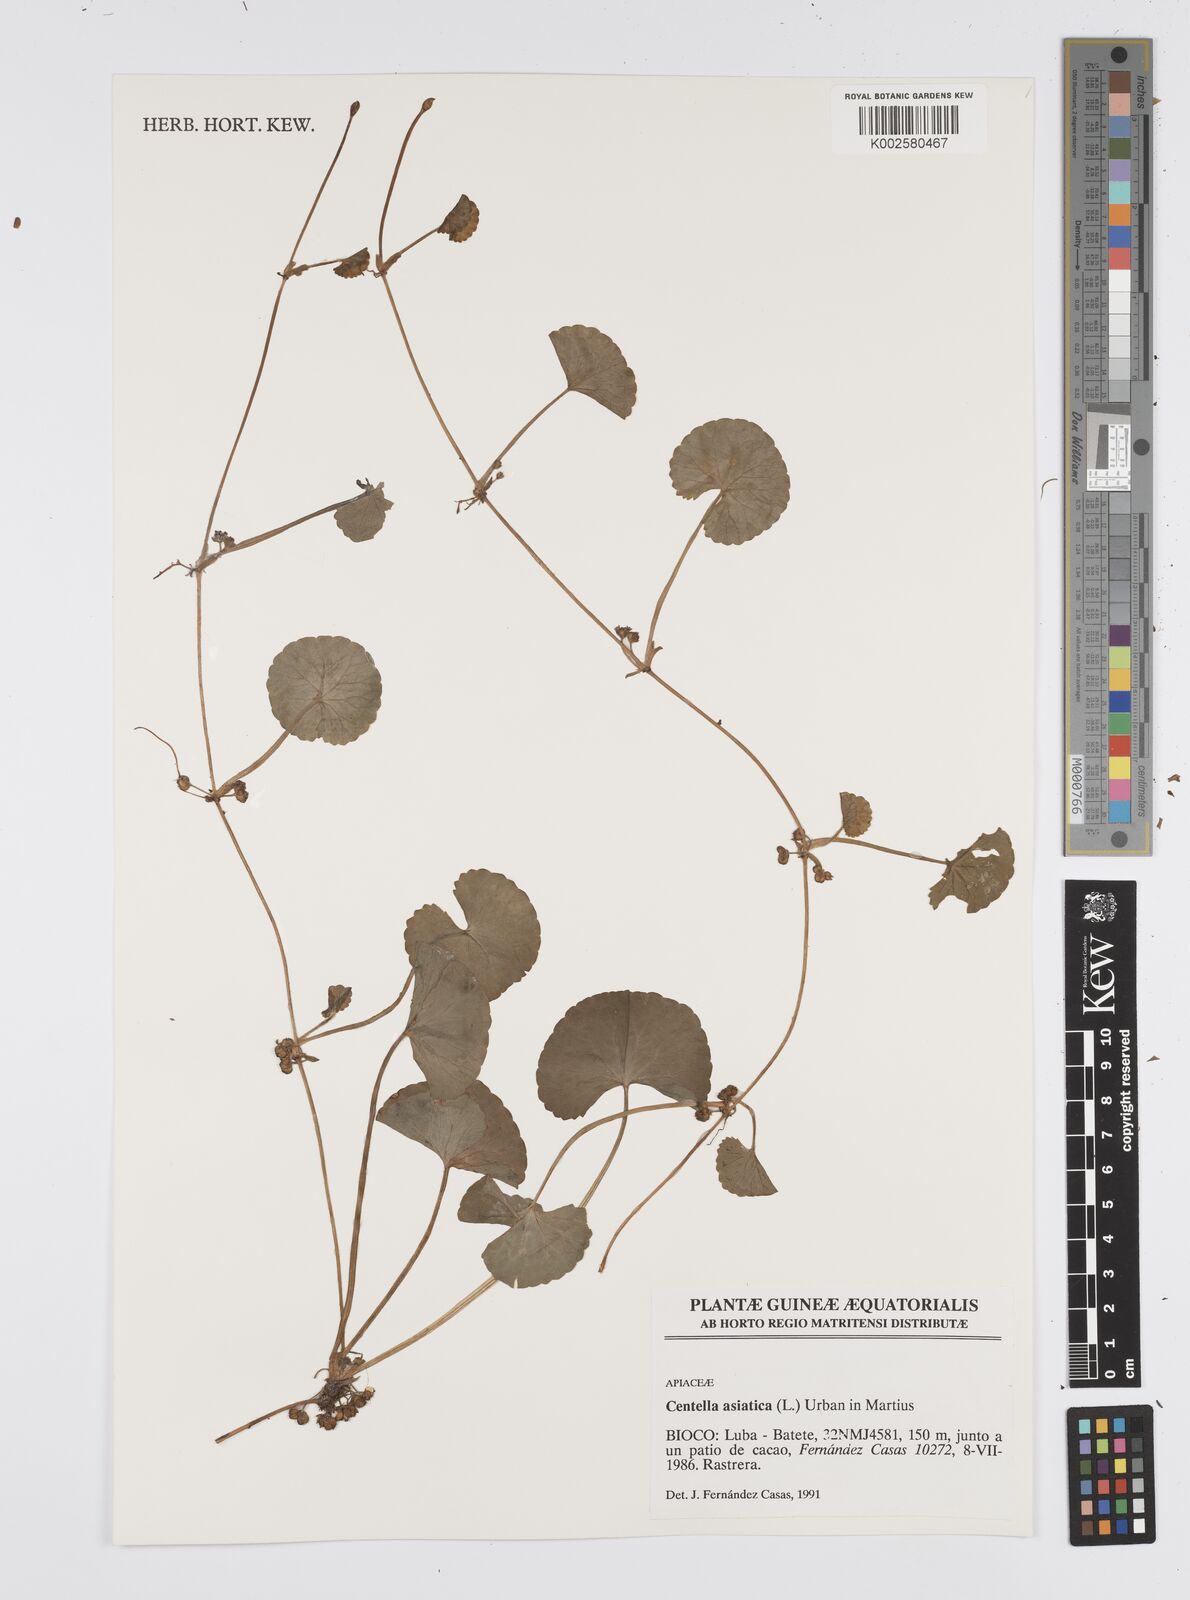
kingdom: Plantae
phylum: Tracheophyta
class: Magnoliopsida
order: Apiales
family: Apiaceae
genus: Centella
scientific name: Centella asiatica
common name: Spadeleaf
